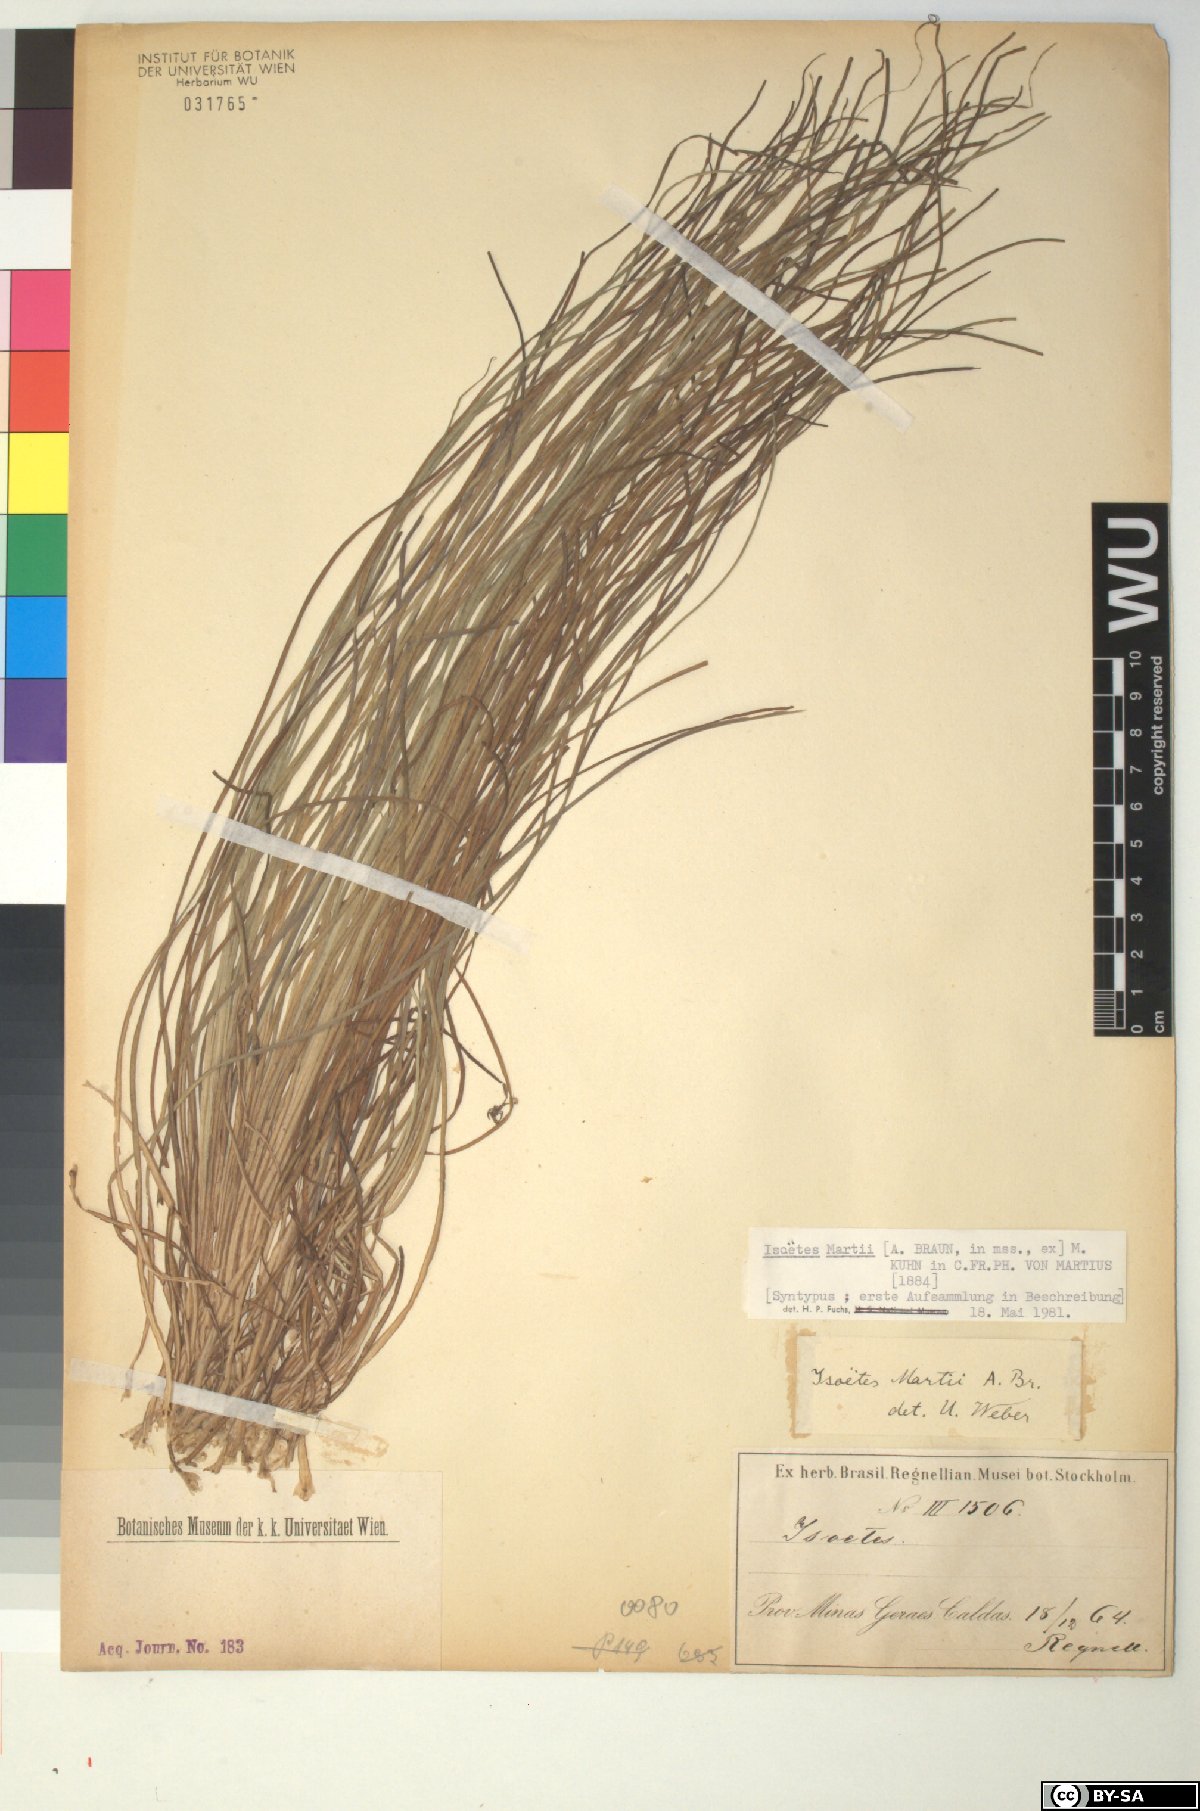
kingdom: Plantae
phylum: Tracheophyta
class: Lycopodiopsida
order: Isoetales
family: Isoetaceae
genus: Isoetes
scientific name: Isoetes martii
